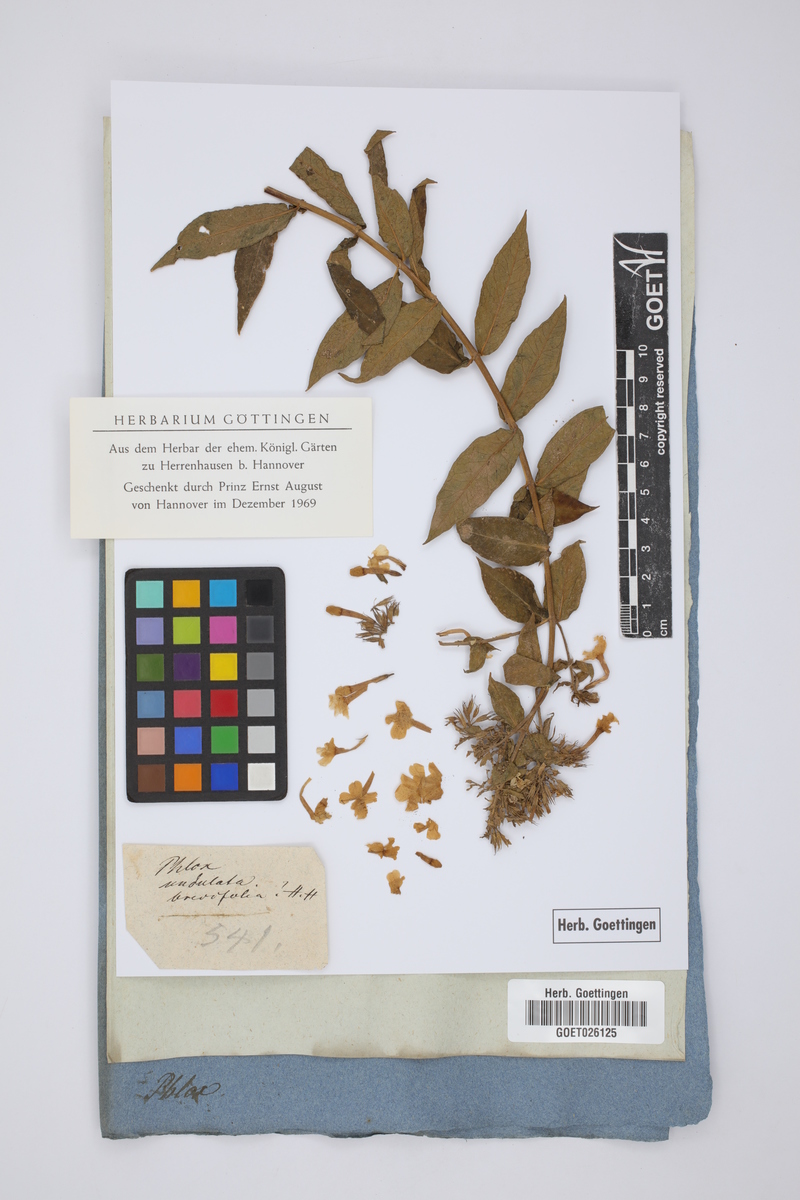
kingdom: Plantae
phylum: Tracheophyta
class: Magnoliopsida
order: Ericales
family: Polemoniaceae
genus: Phlox
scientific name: Phlox paniculata
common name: Fall phlox
